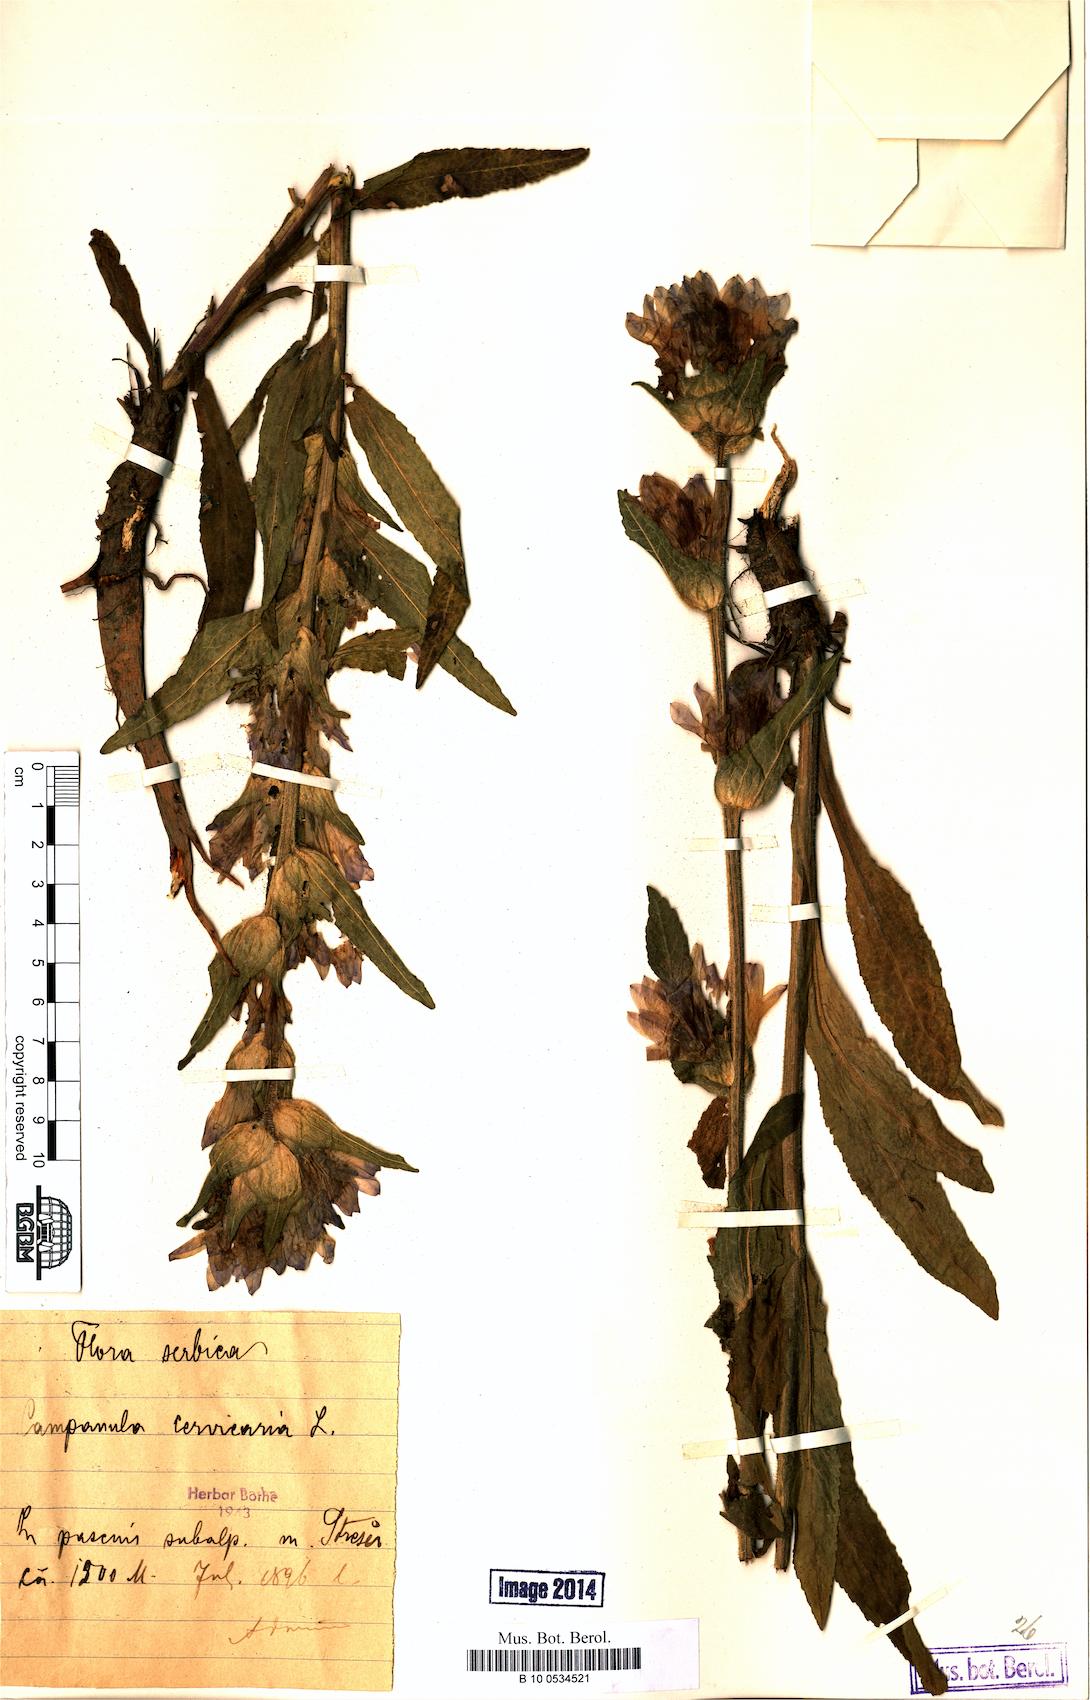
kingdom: Plantae
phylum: Tracheophyta
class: Magnoliopsida
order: Asterales
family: Campanulaceae
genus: Campanula
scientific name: Campanula cervicaria
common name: Bristly bellflower
